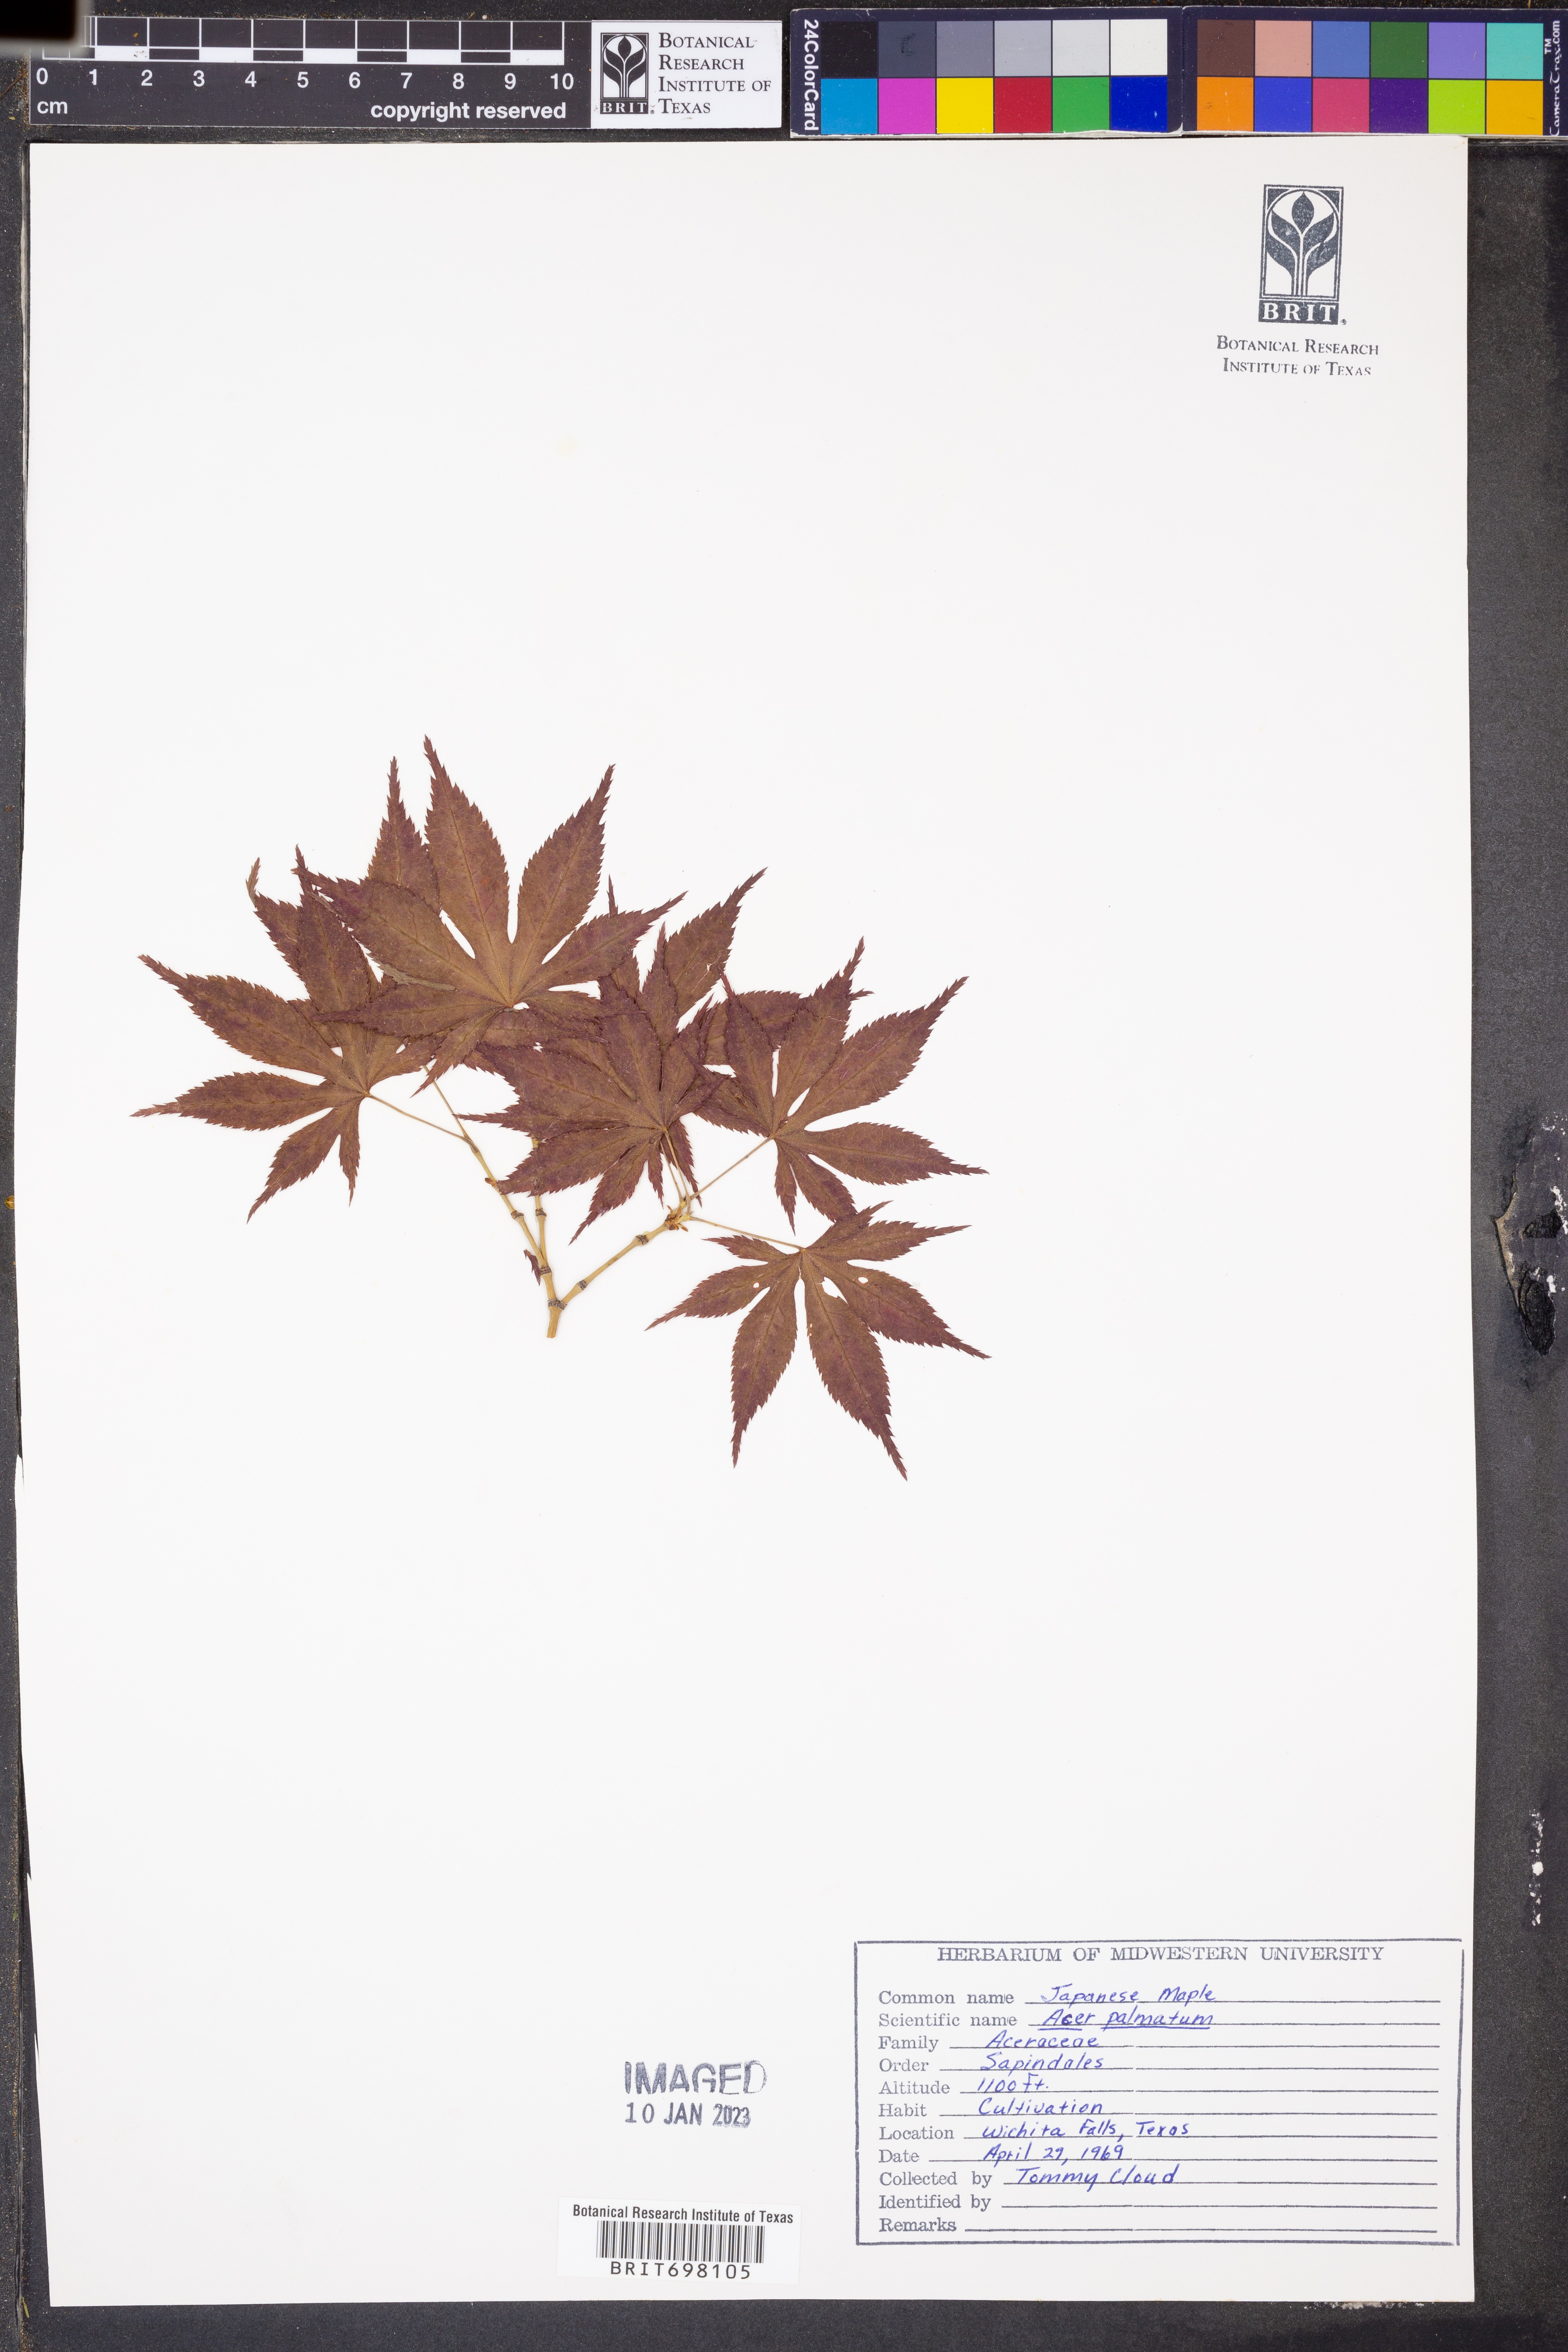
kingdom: Plantae
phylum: Tracheophyta
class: Magnoliopsida
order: Sapindales
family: Sapindaceae
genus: Acer
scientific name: Acer palmatum
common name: Japanese maple
